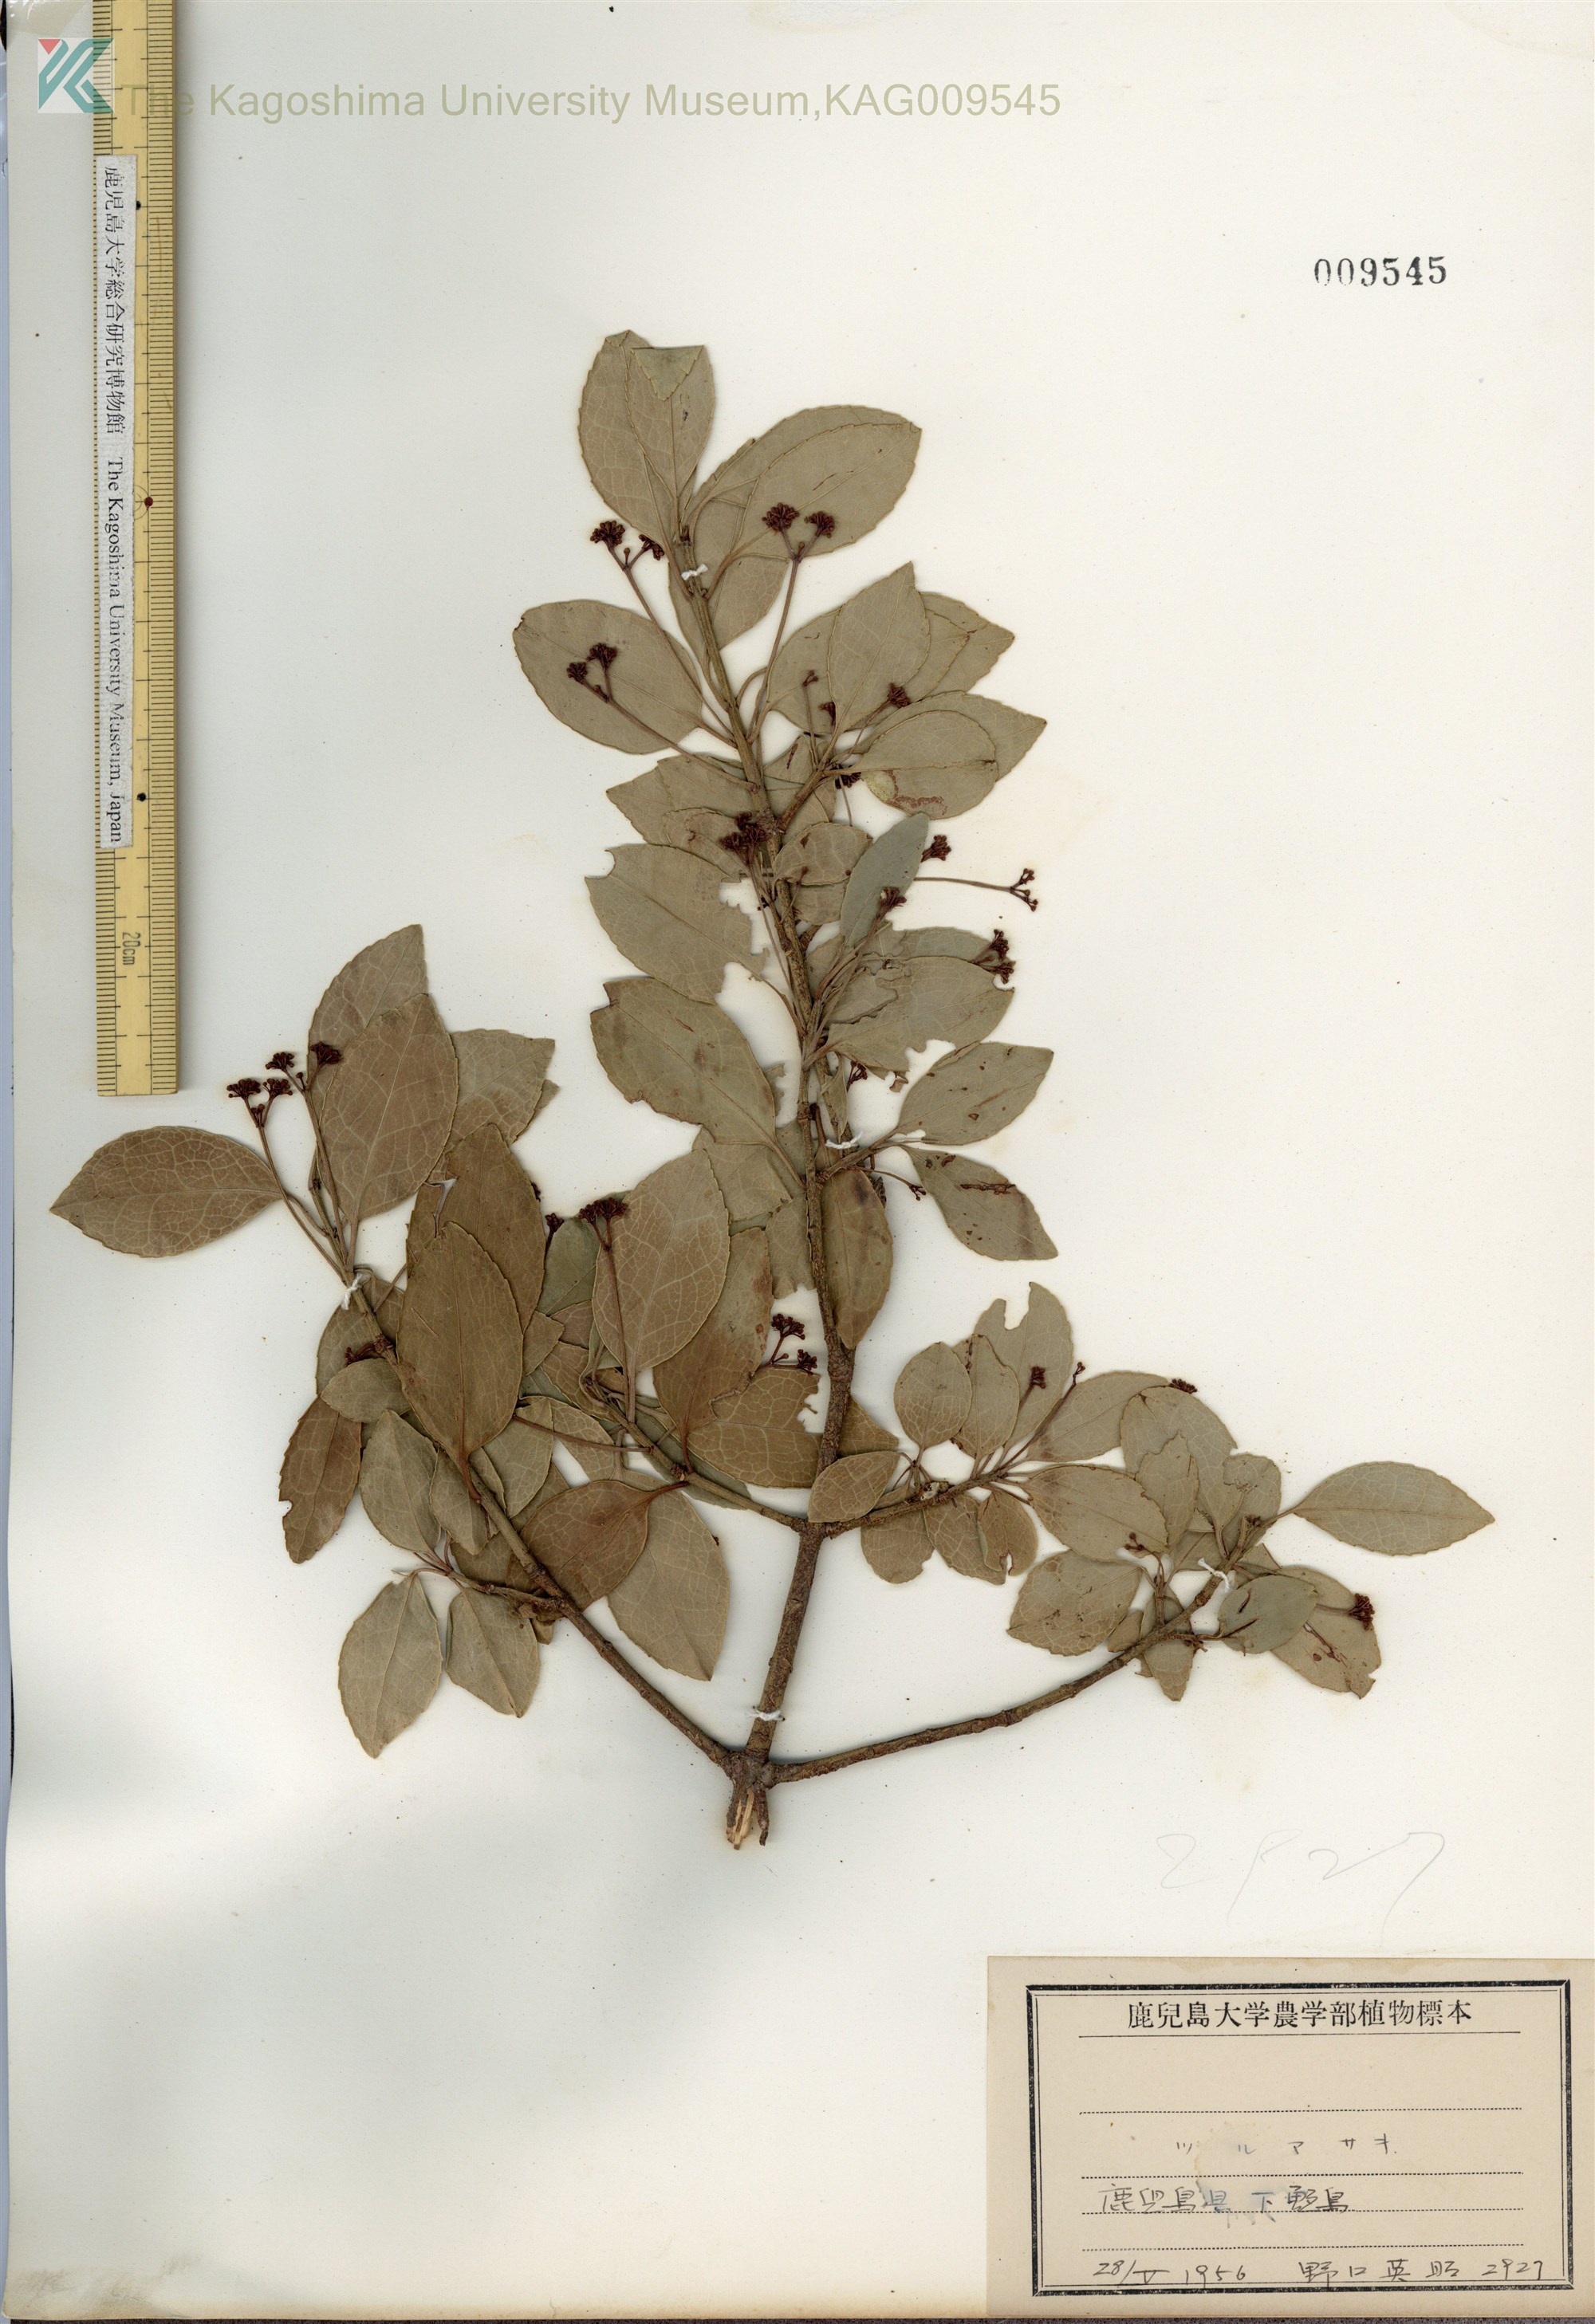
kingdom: Plantae
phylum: Tracheophyta
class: Magnoliopsida
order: Celastrales
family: Celastraceae
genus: Euonymus
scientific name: Euonymus fortunei
